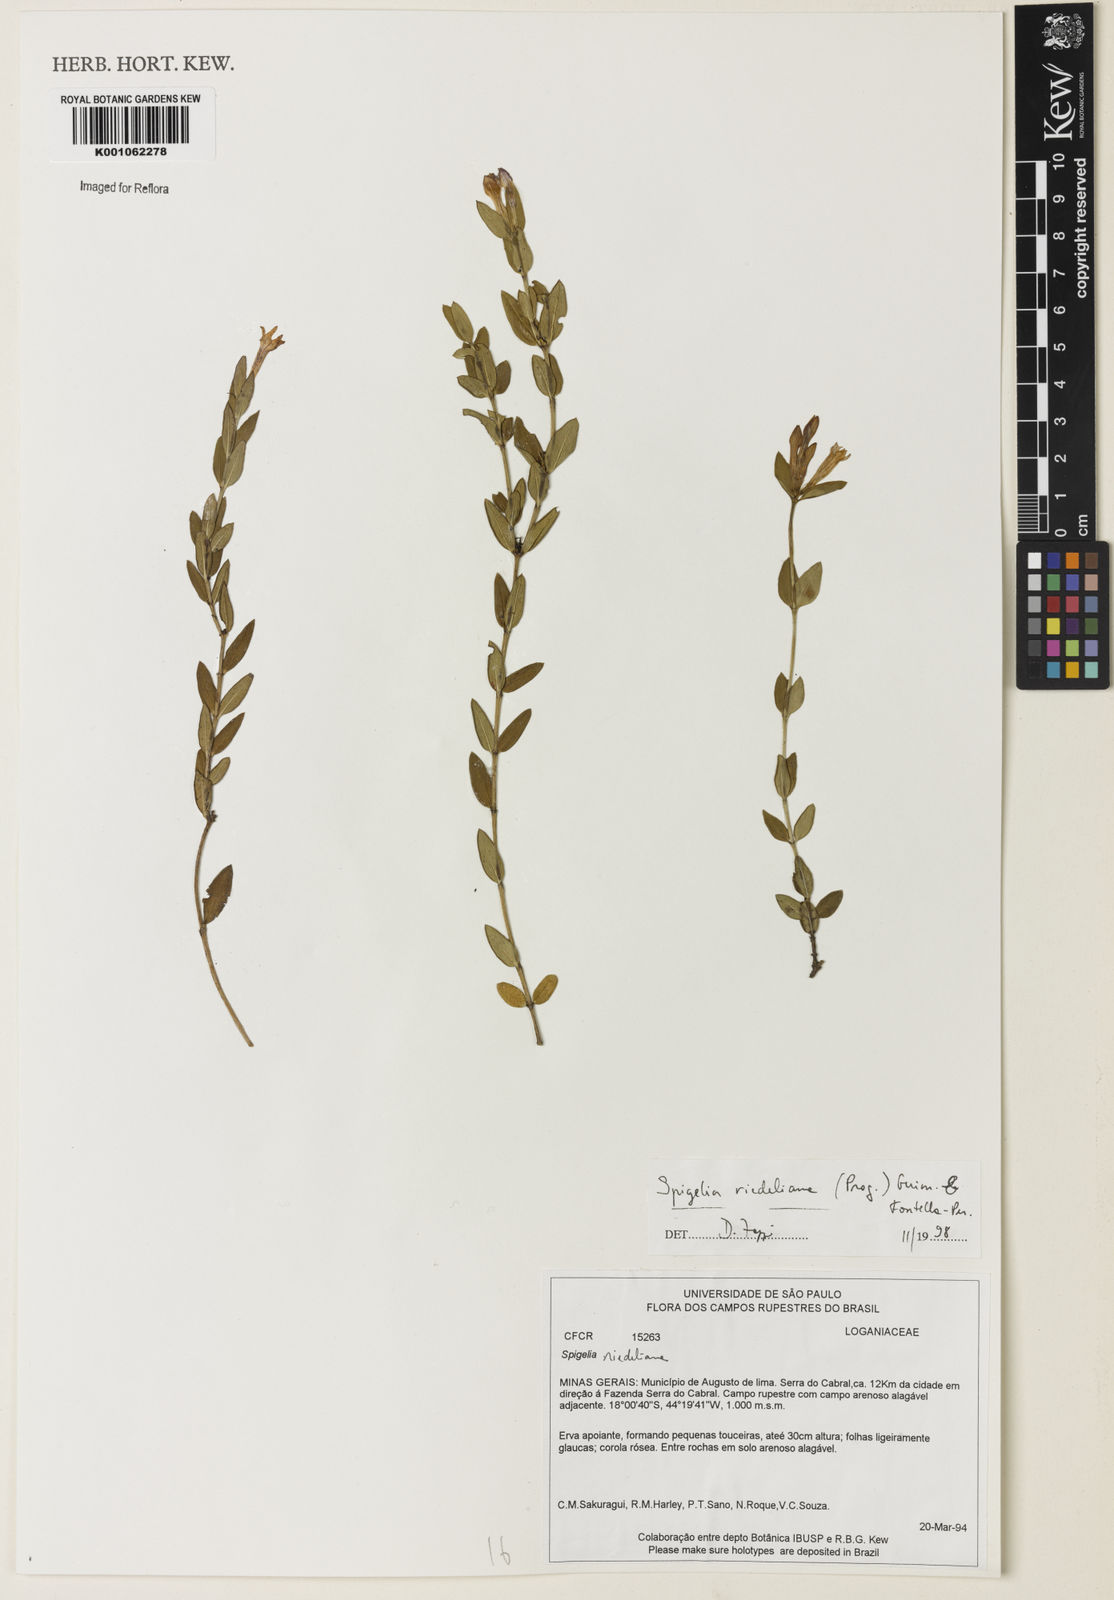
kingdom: Plantae
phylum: Tracheophyta
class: Magnoliopsida
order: Gentianales
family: Loganiaceae
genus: Spigelia
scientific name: Spigelia riedeliana
